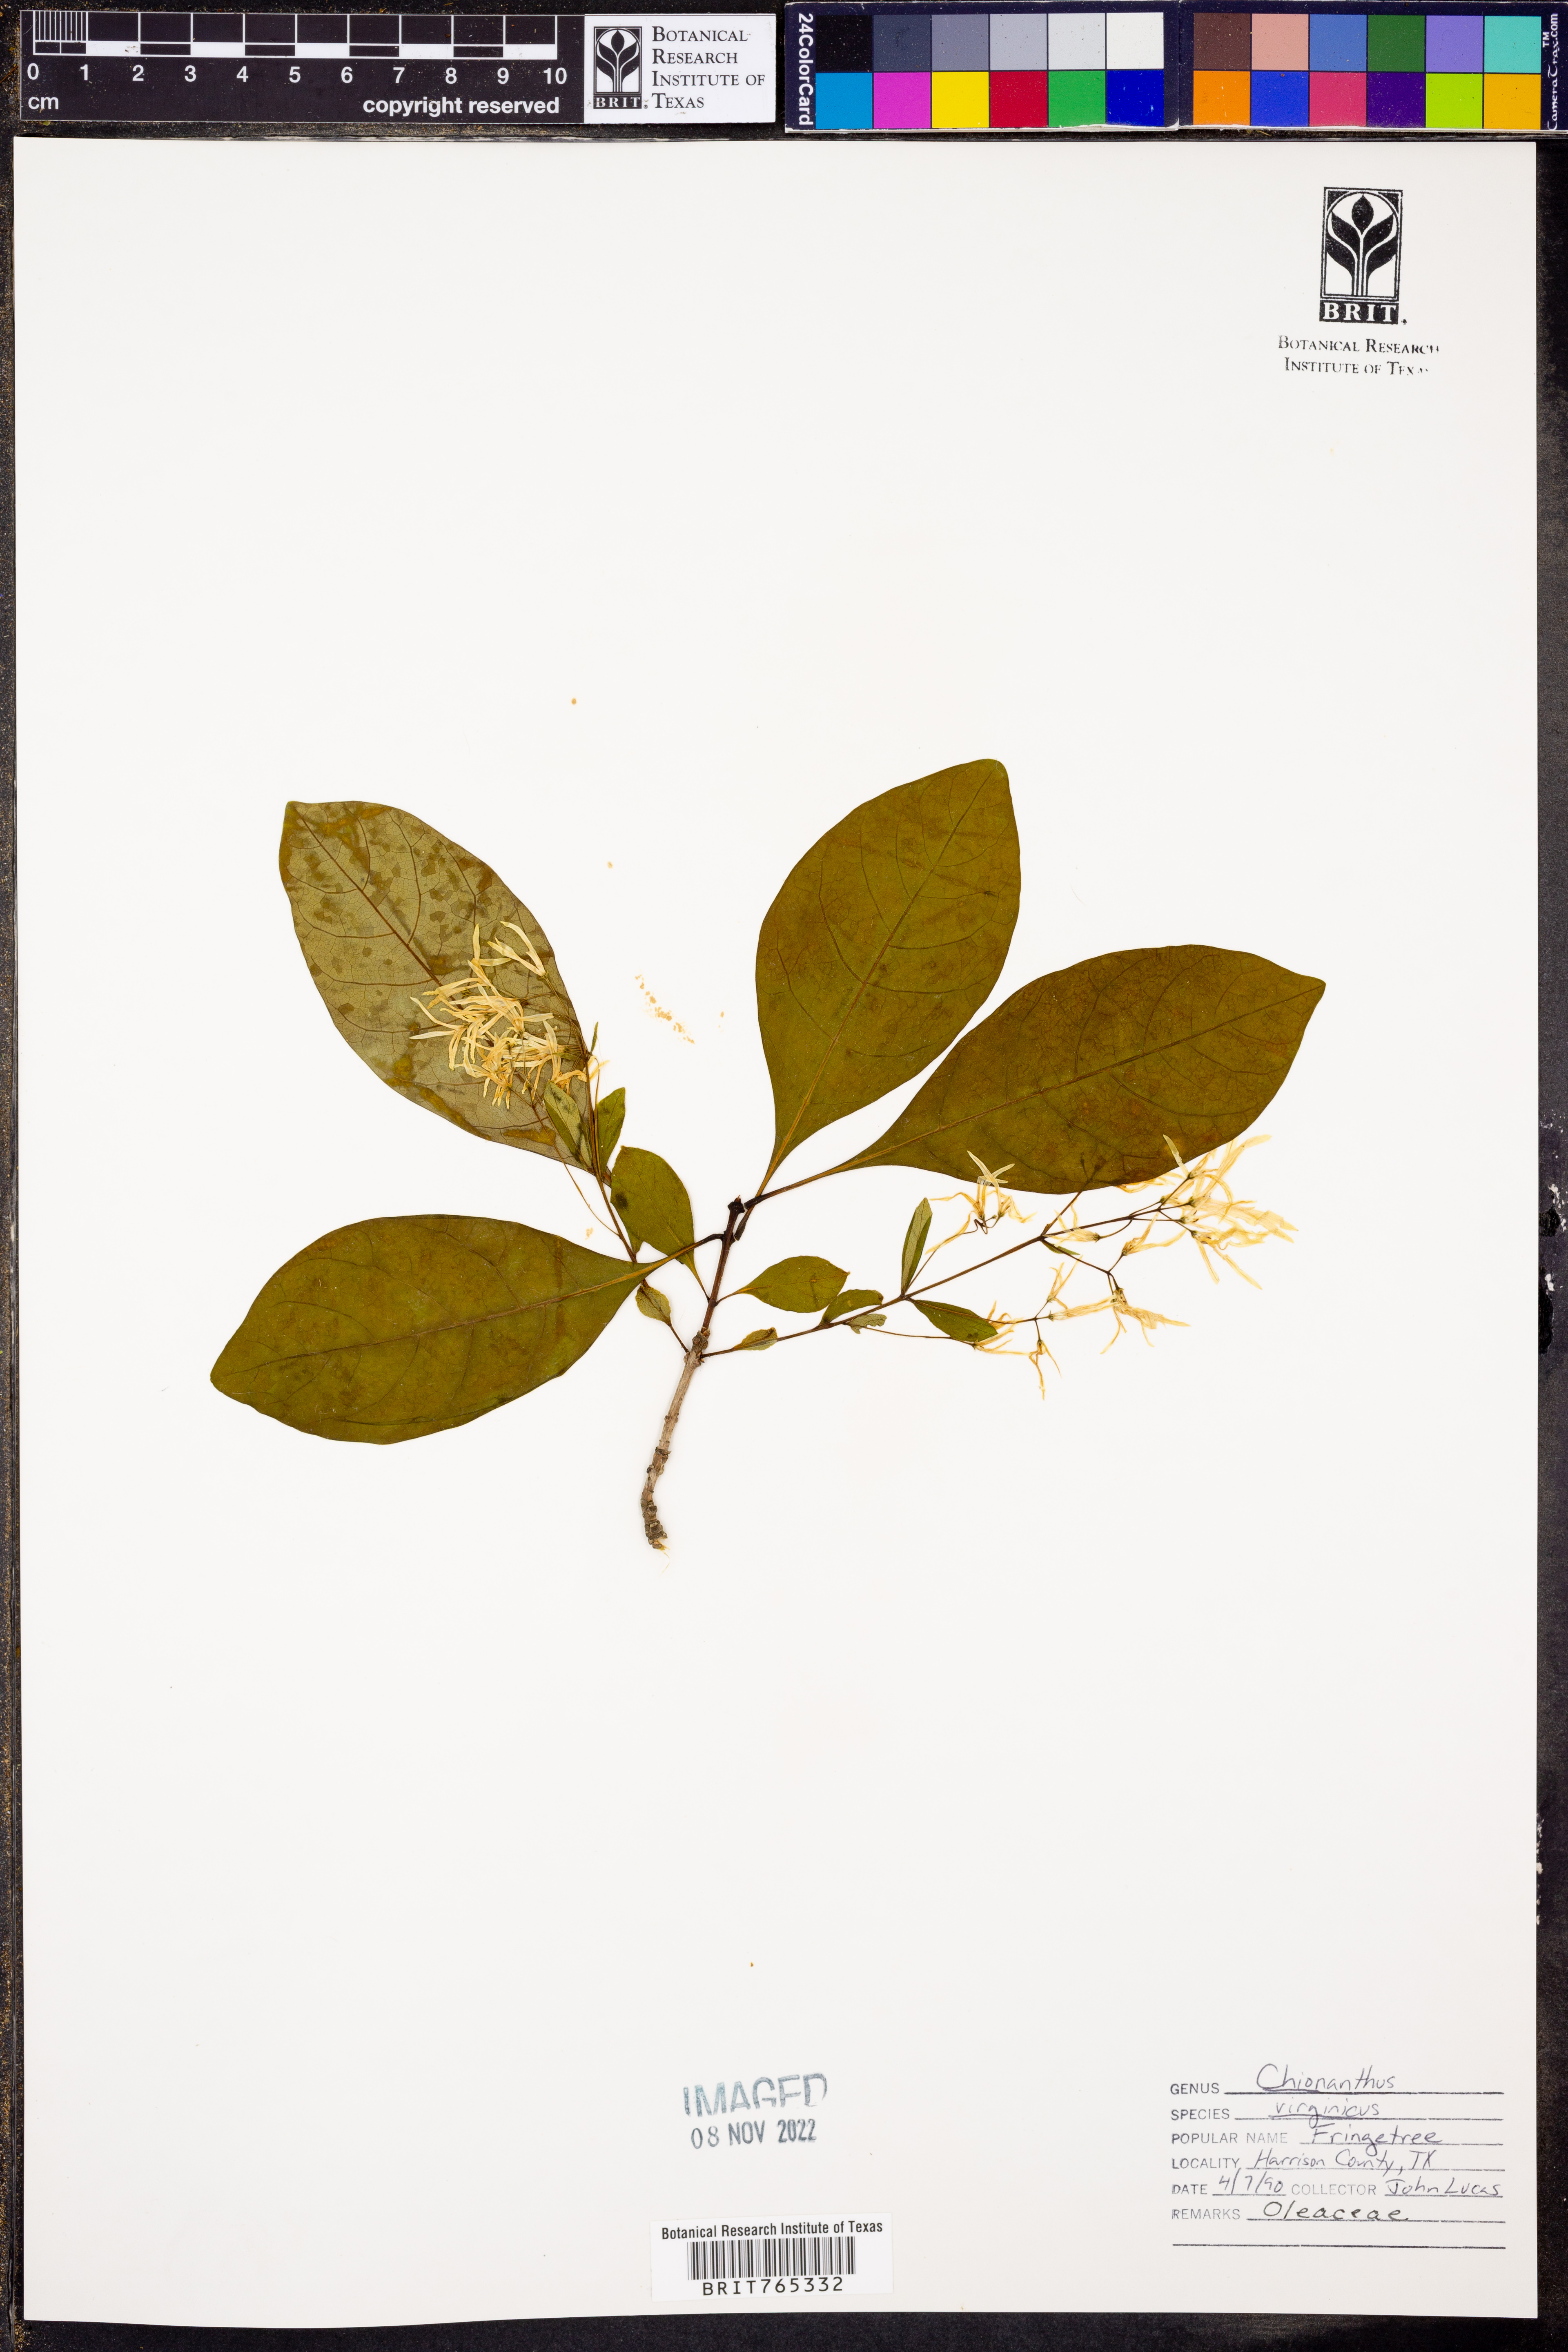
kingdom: Plantae
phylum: Tracheophyta
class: Magnoliopsida
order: Lamiales
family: Oleaceae
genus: Chionanthus
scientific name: Chionanthus virginicus
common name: American fringetree
